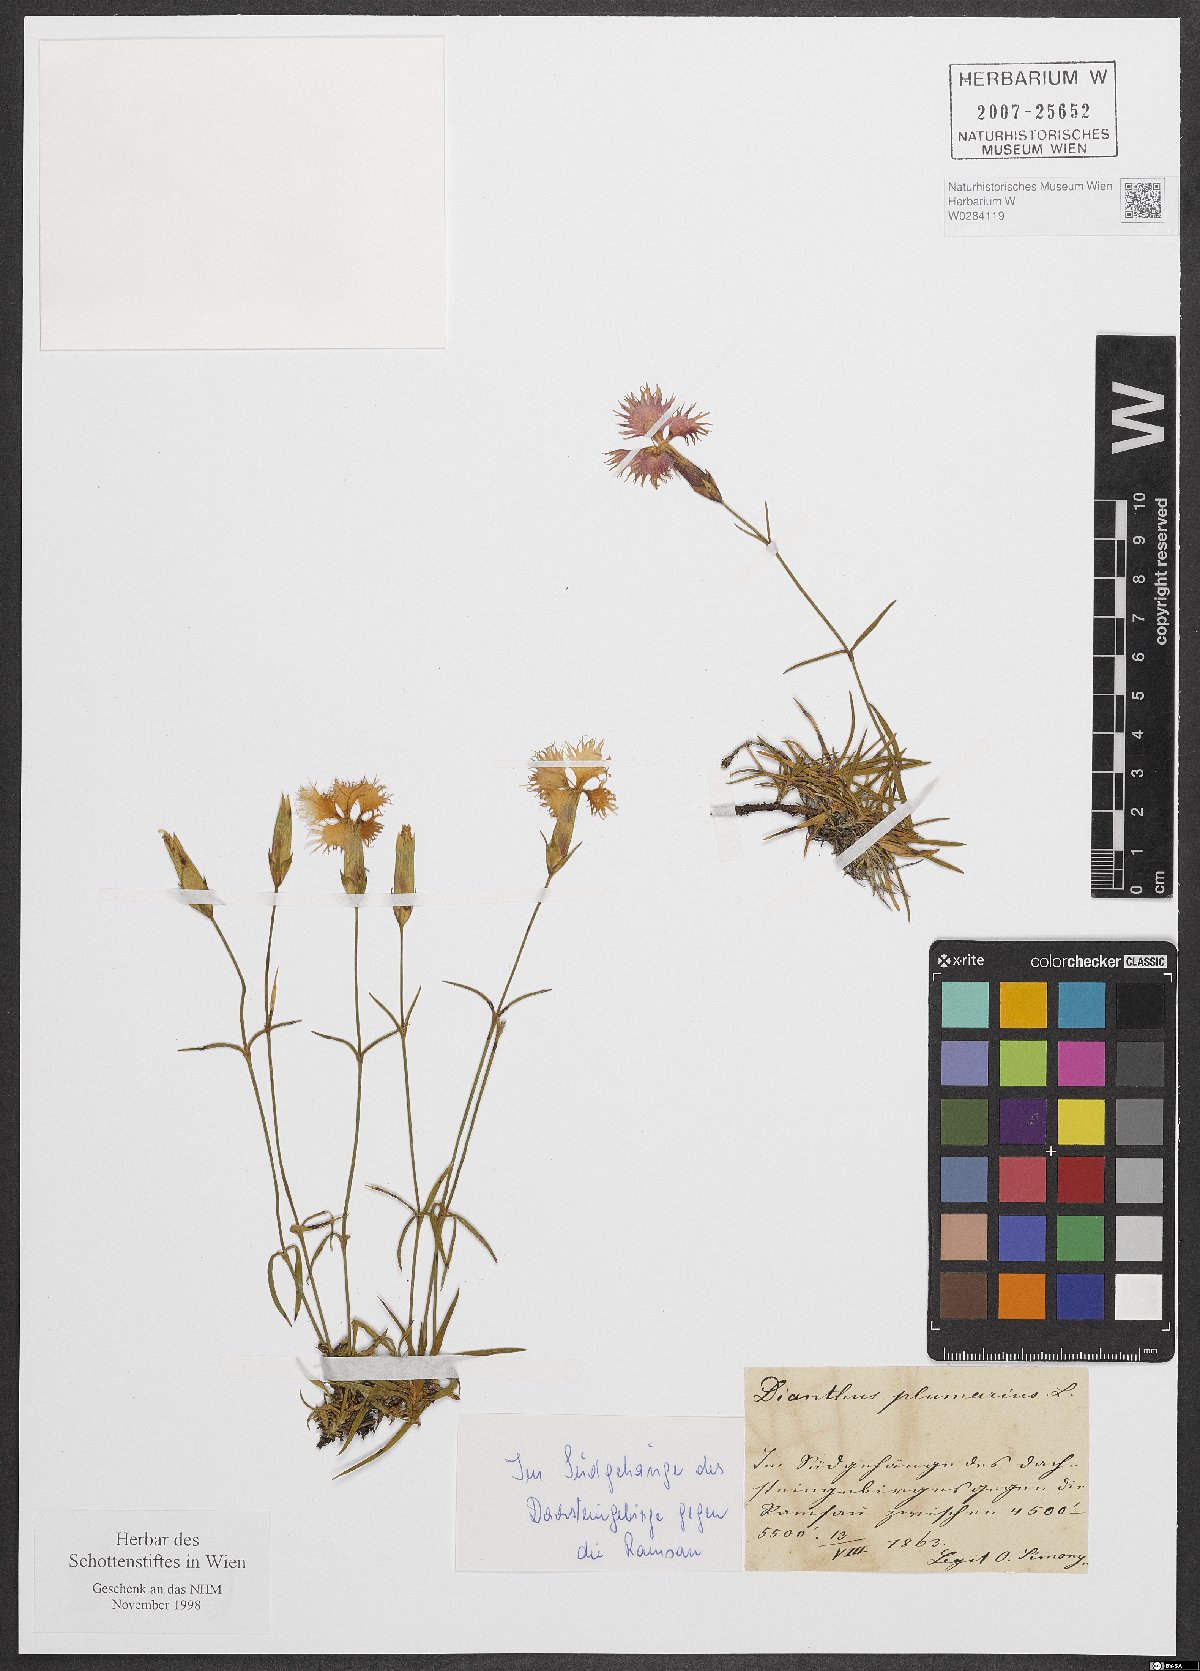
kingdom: Plantae
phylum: Tracheophyta
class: Magnoliopsida
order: Caryophyllales
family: Caryophyllaceae
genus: Dianthus
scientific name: Dianthus plumarius
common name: Pink
